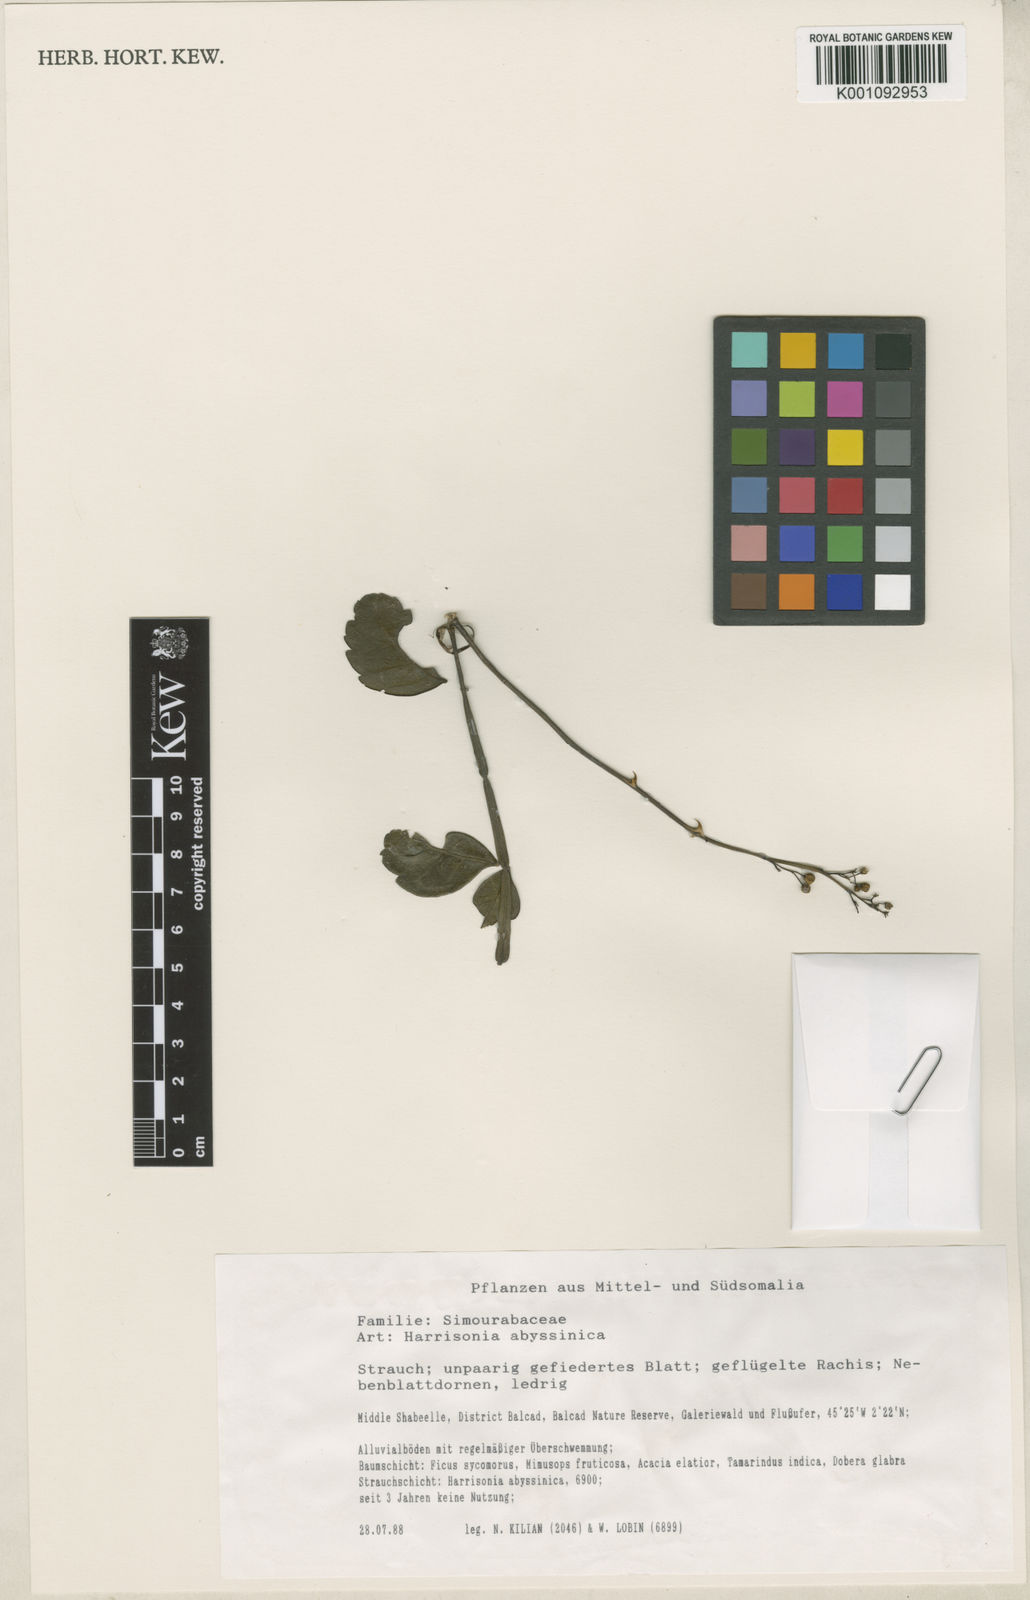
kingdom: Plantae
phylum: Tracheophyta
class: Magnoliopsida
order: Sapindales
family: Rutaceae
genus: Harrisonia
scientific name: Harrisonia abyssinica
